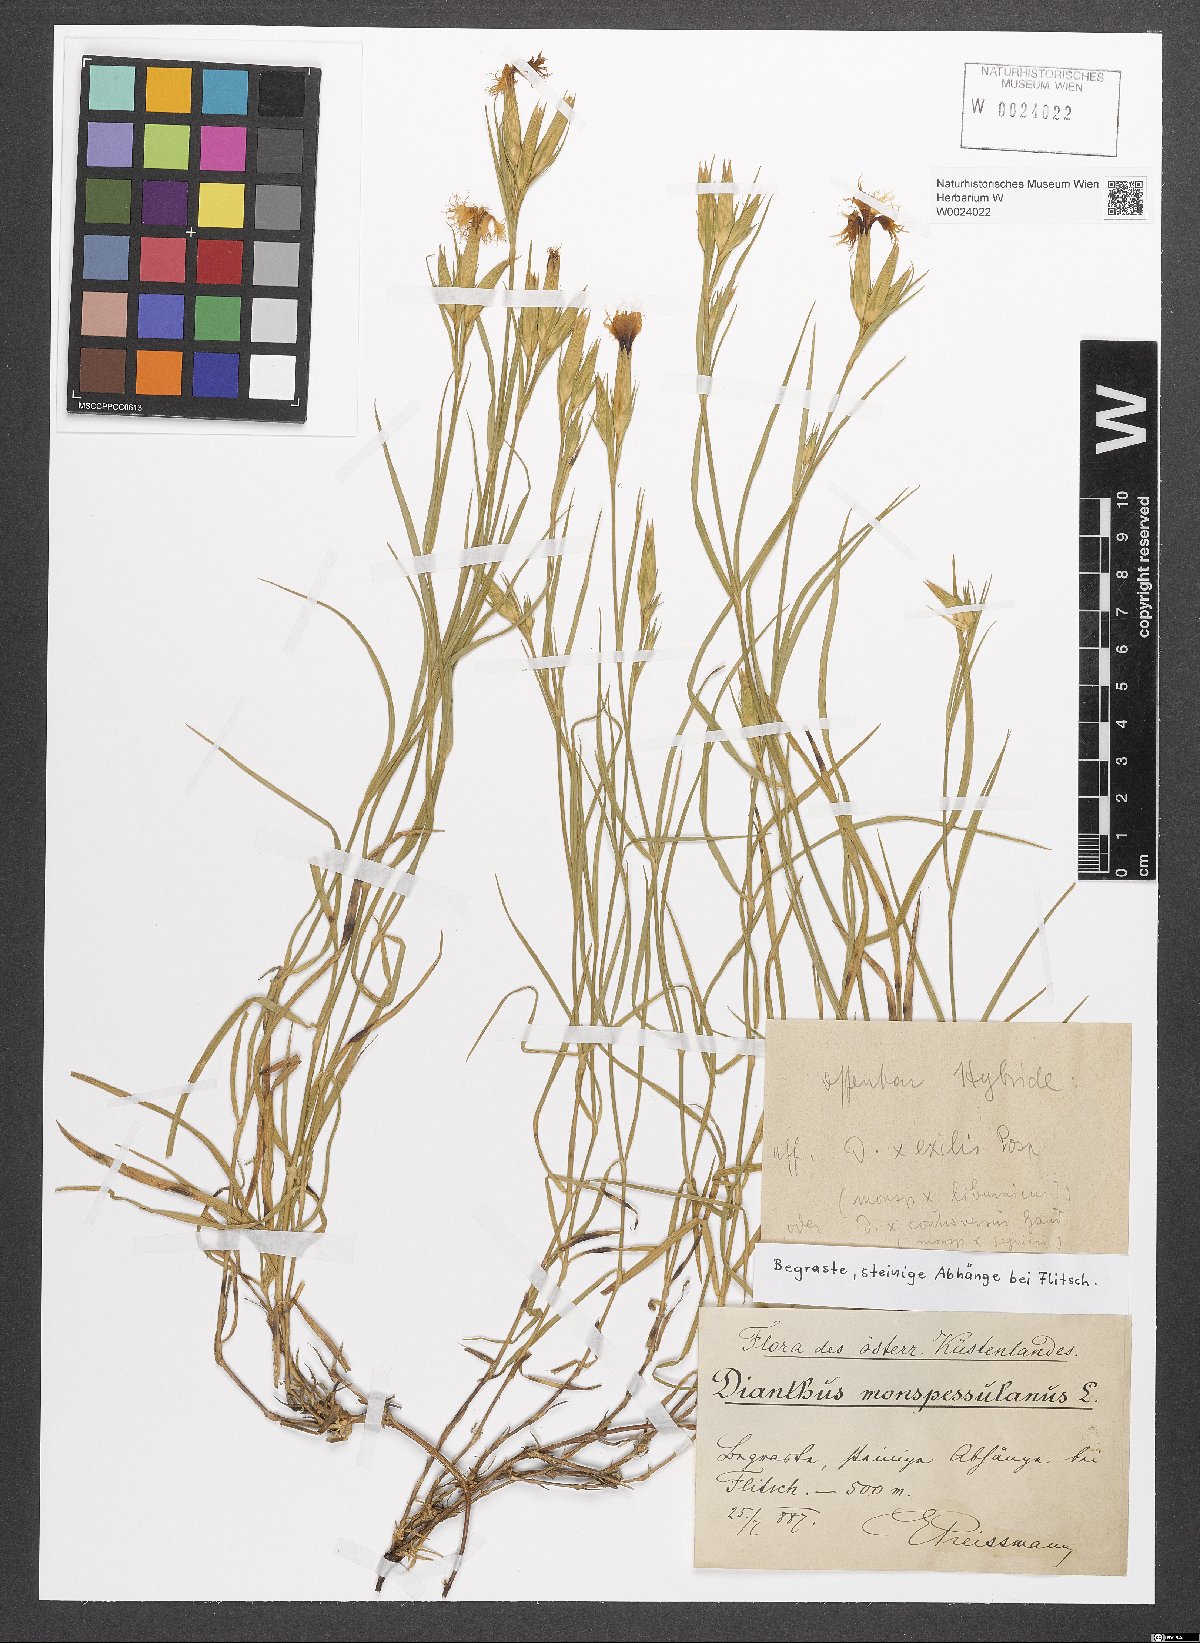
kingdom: Plantae
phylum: Tracheophyta
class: Magnoliopsida
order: Caryophyllales
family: Caryophyllaceae
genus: Dianthus
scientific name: Dianthus hyssopifolius
